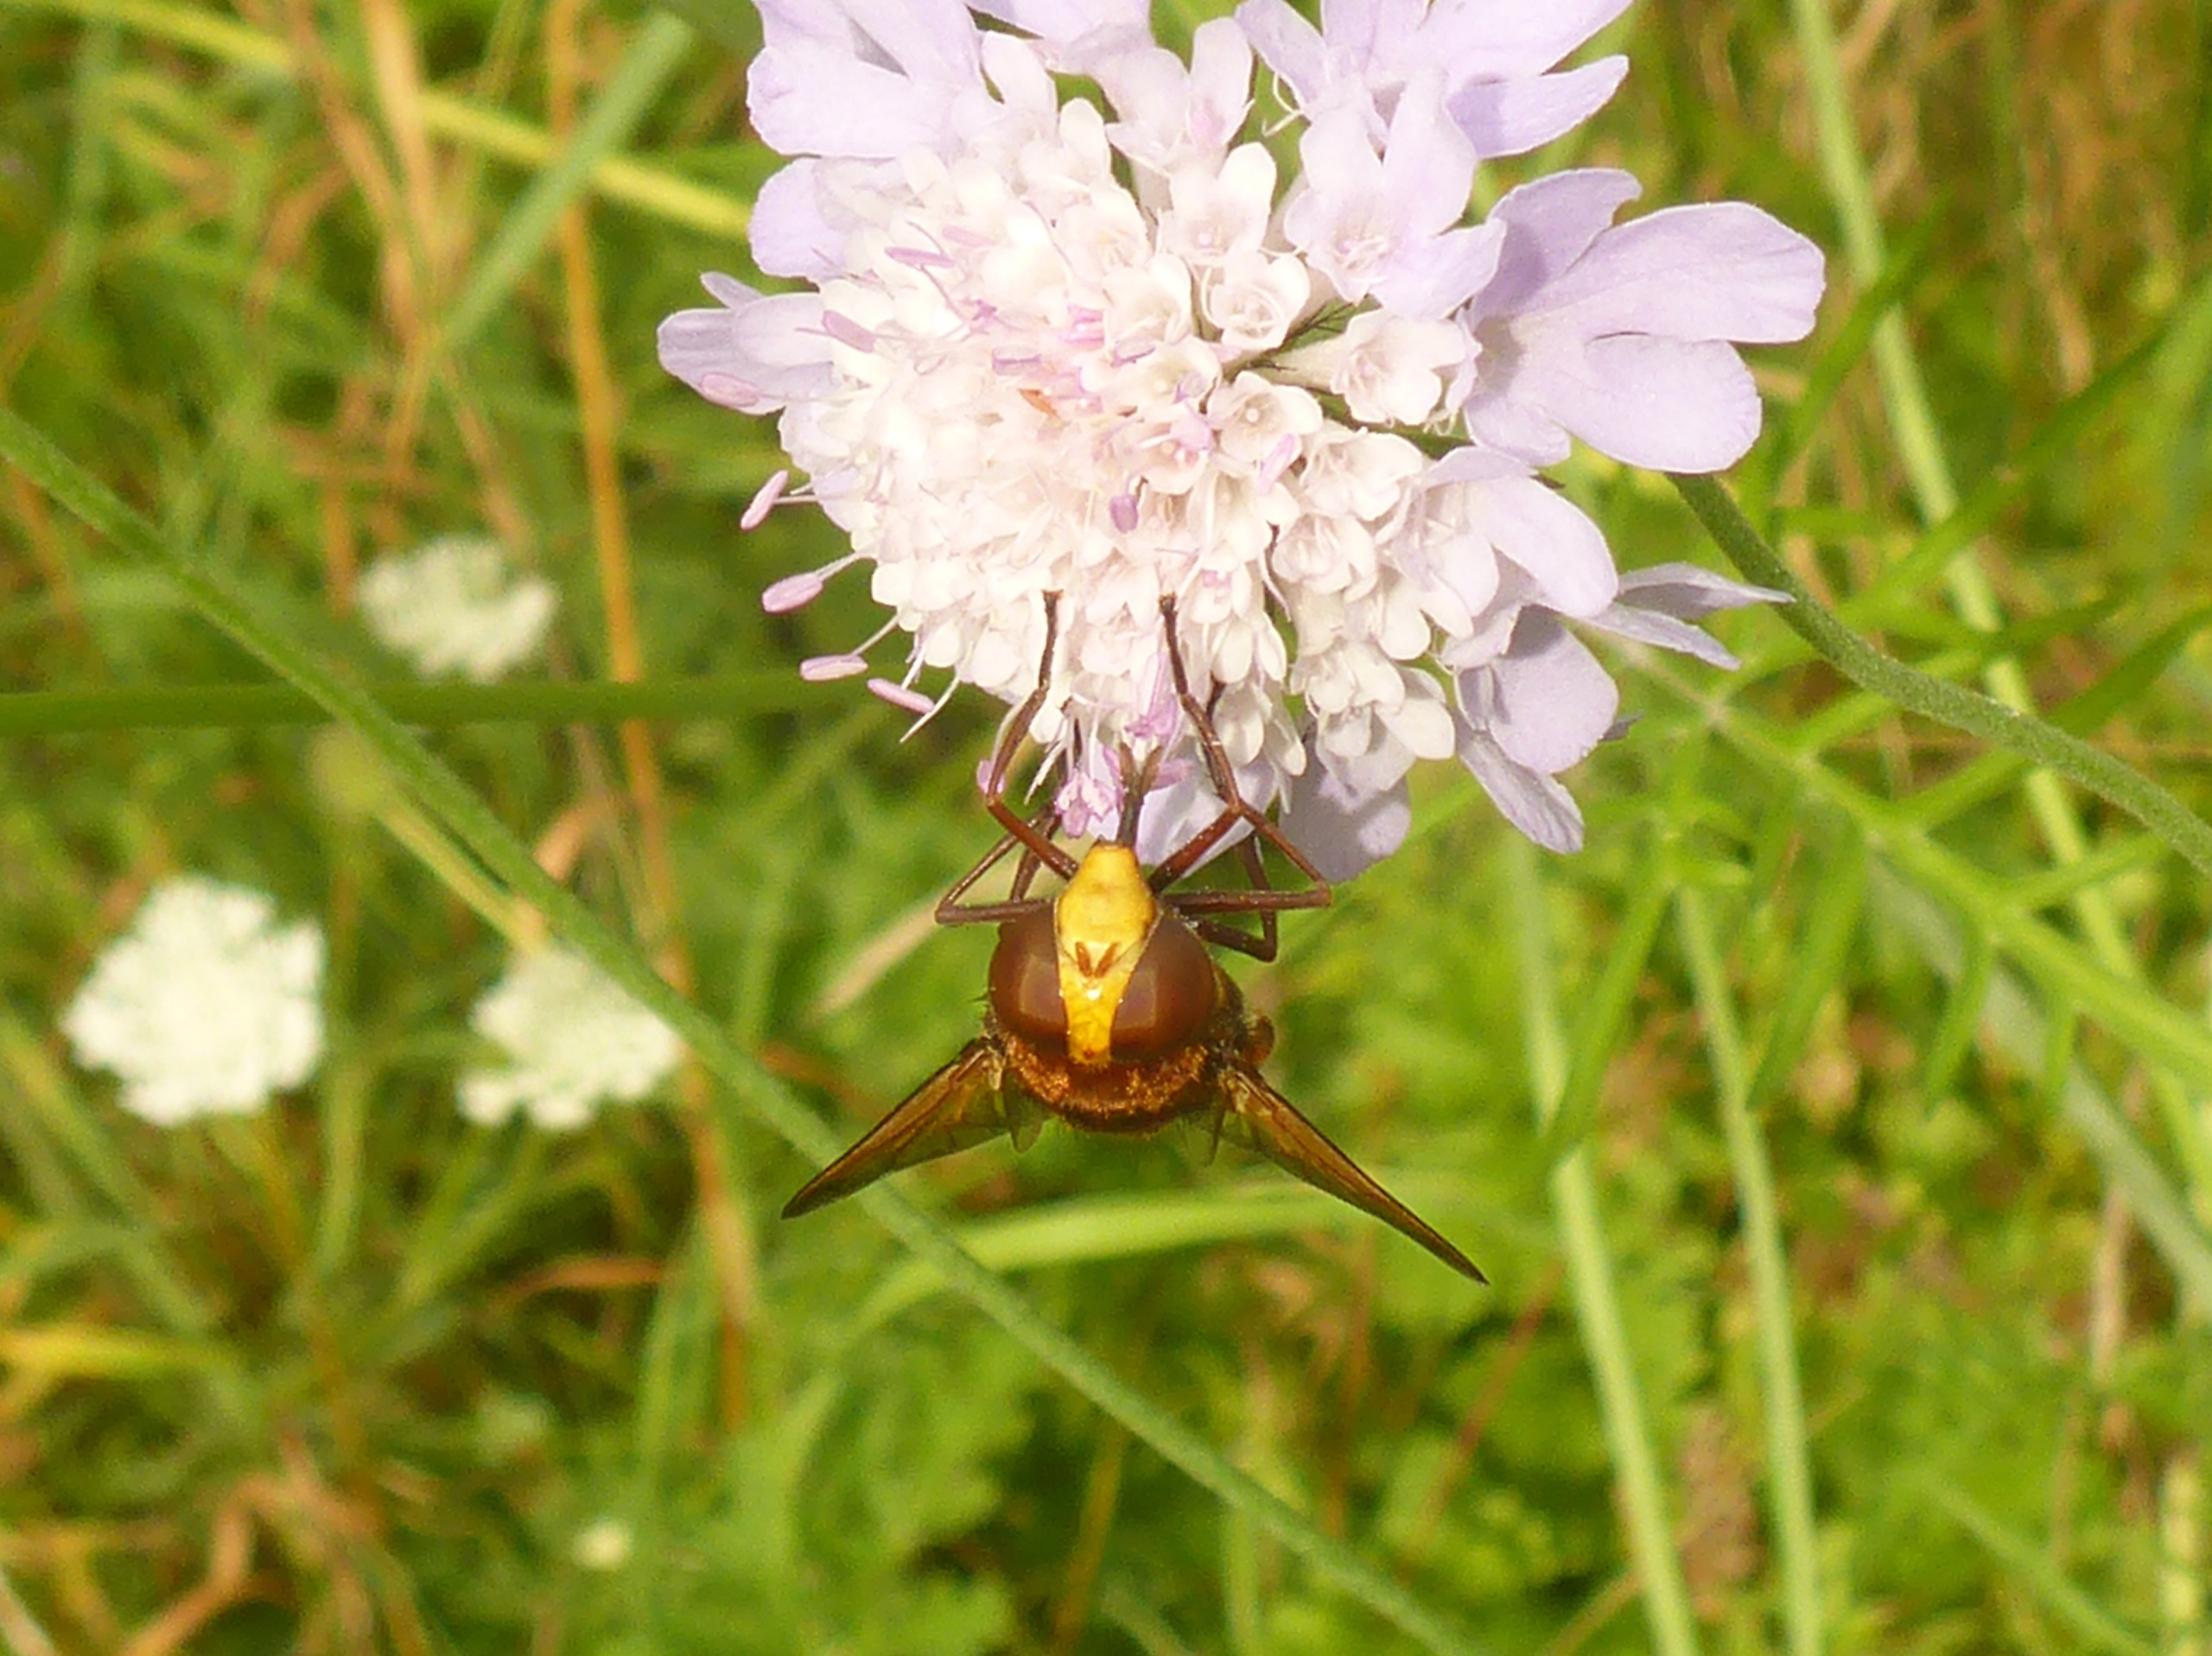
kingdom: Animalia
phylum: Arthropoda
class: Insecta
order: Diptera
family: Syrphidae
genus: Volucella
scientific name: Volucella zonaria
